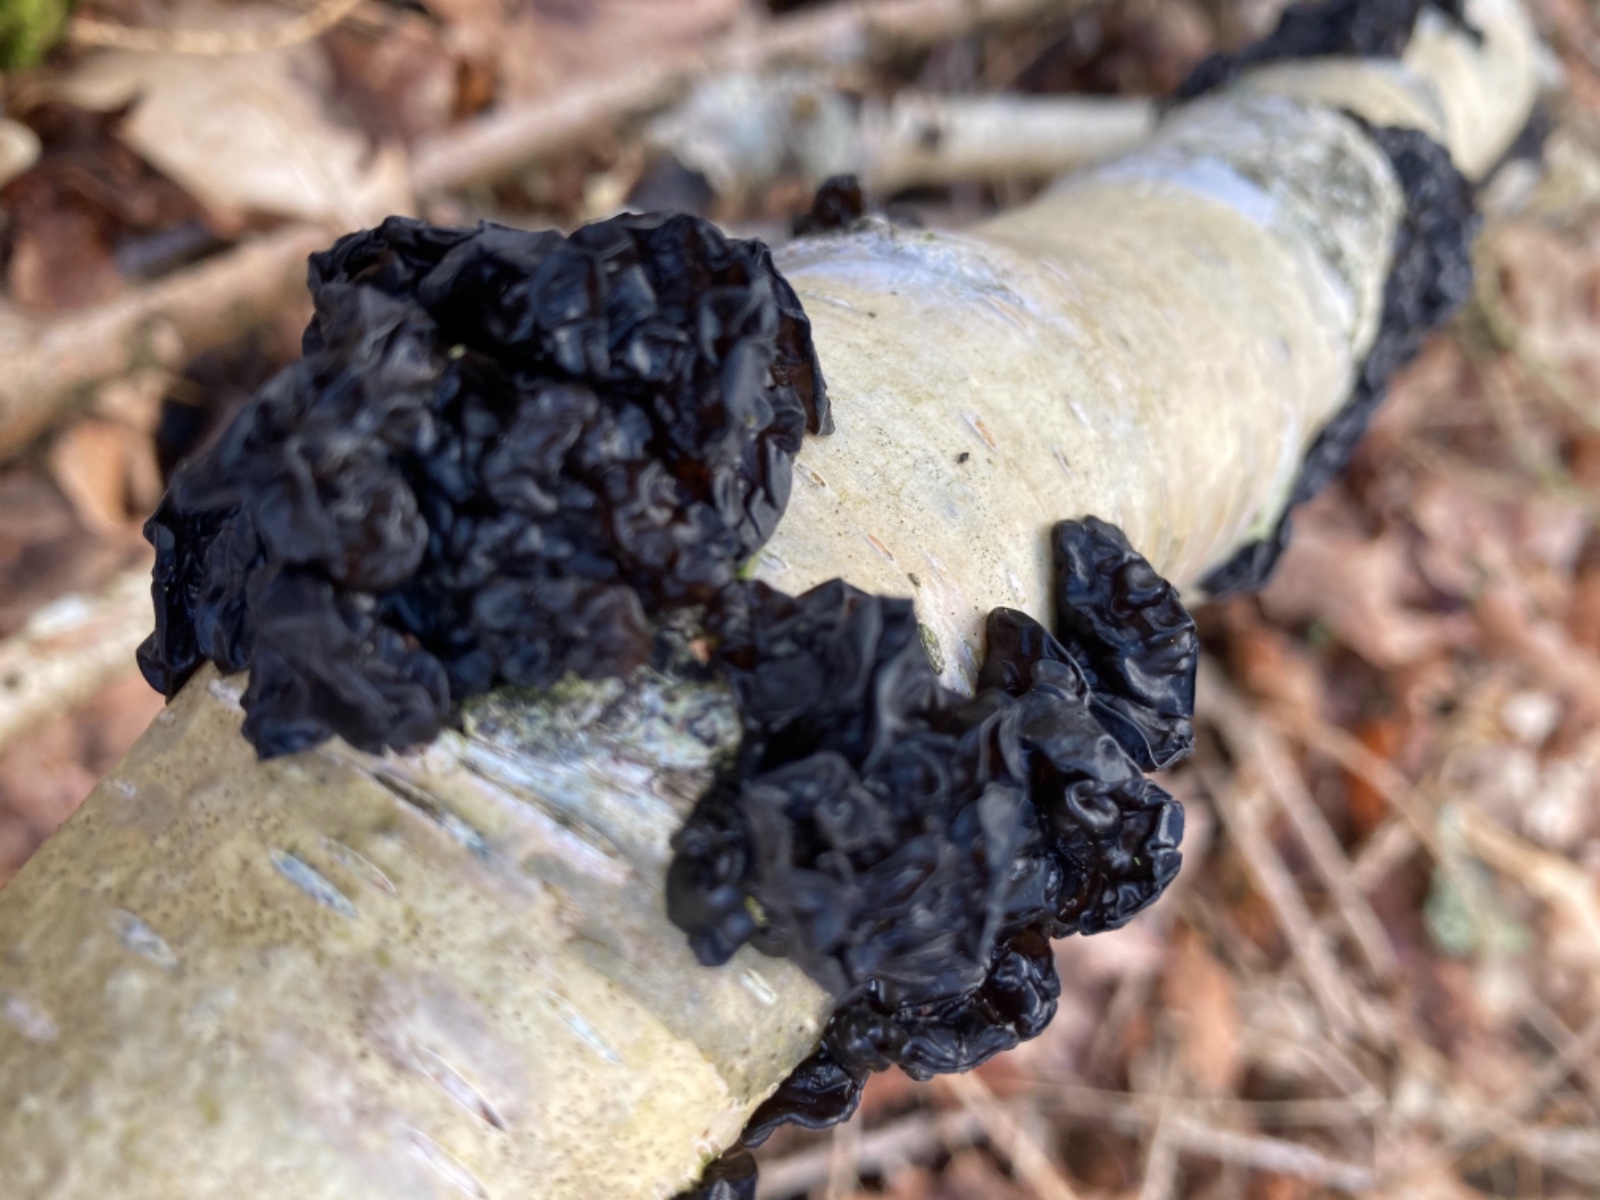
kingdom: Fungi
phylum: Basidiomycota
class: Agaricomycetes
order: Auriculariales
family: Auriculariaceae
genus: Exidia
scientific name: Exidia nigricans
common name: almindelig bævretop
